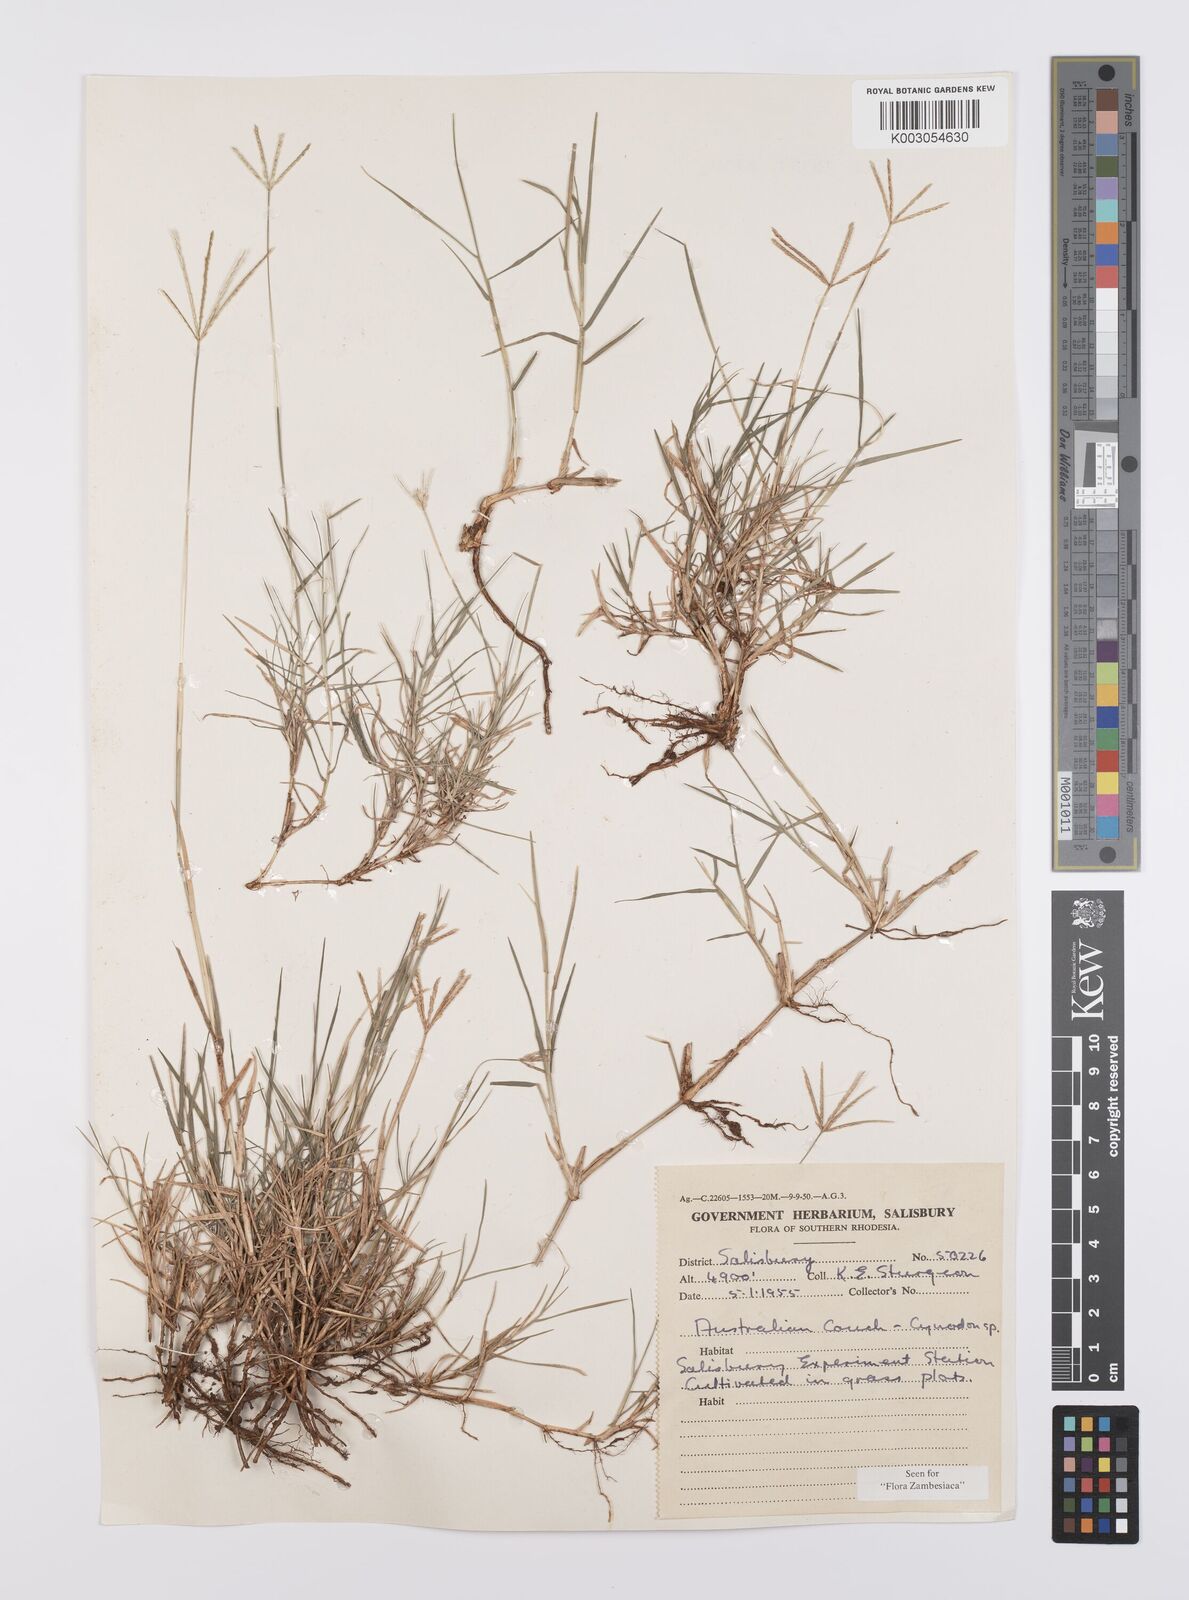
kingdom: Plantae
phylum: Tracheophyta
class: Liliopsida
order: Poales
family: Poaceae
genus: Cynodon
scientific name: Cynodon dactylon
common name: Bermuda grass
